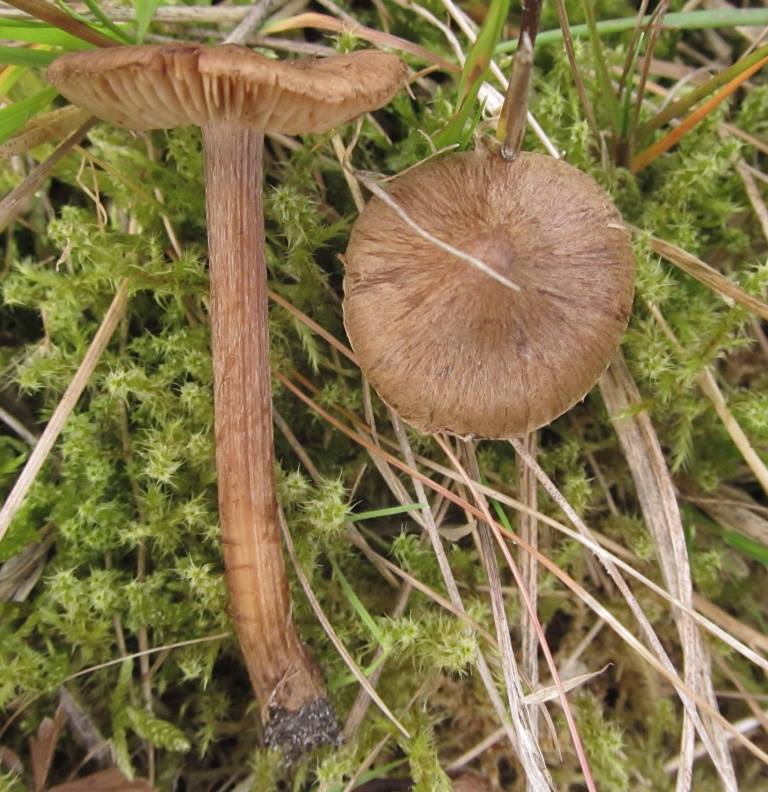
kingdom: Fungi
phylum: Basidiomycota
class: Agaricomycetes
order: Agaricales
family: Inocybaceae
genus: Inocybe
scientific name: Inocybe soluta
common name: lysbladet trævlhat
